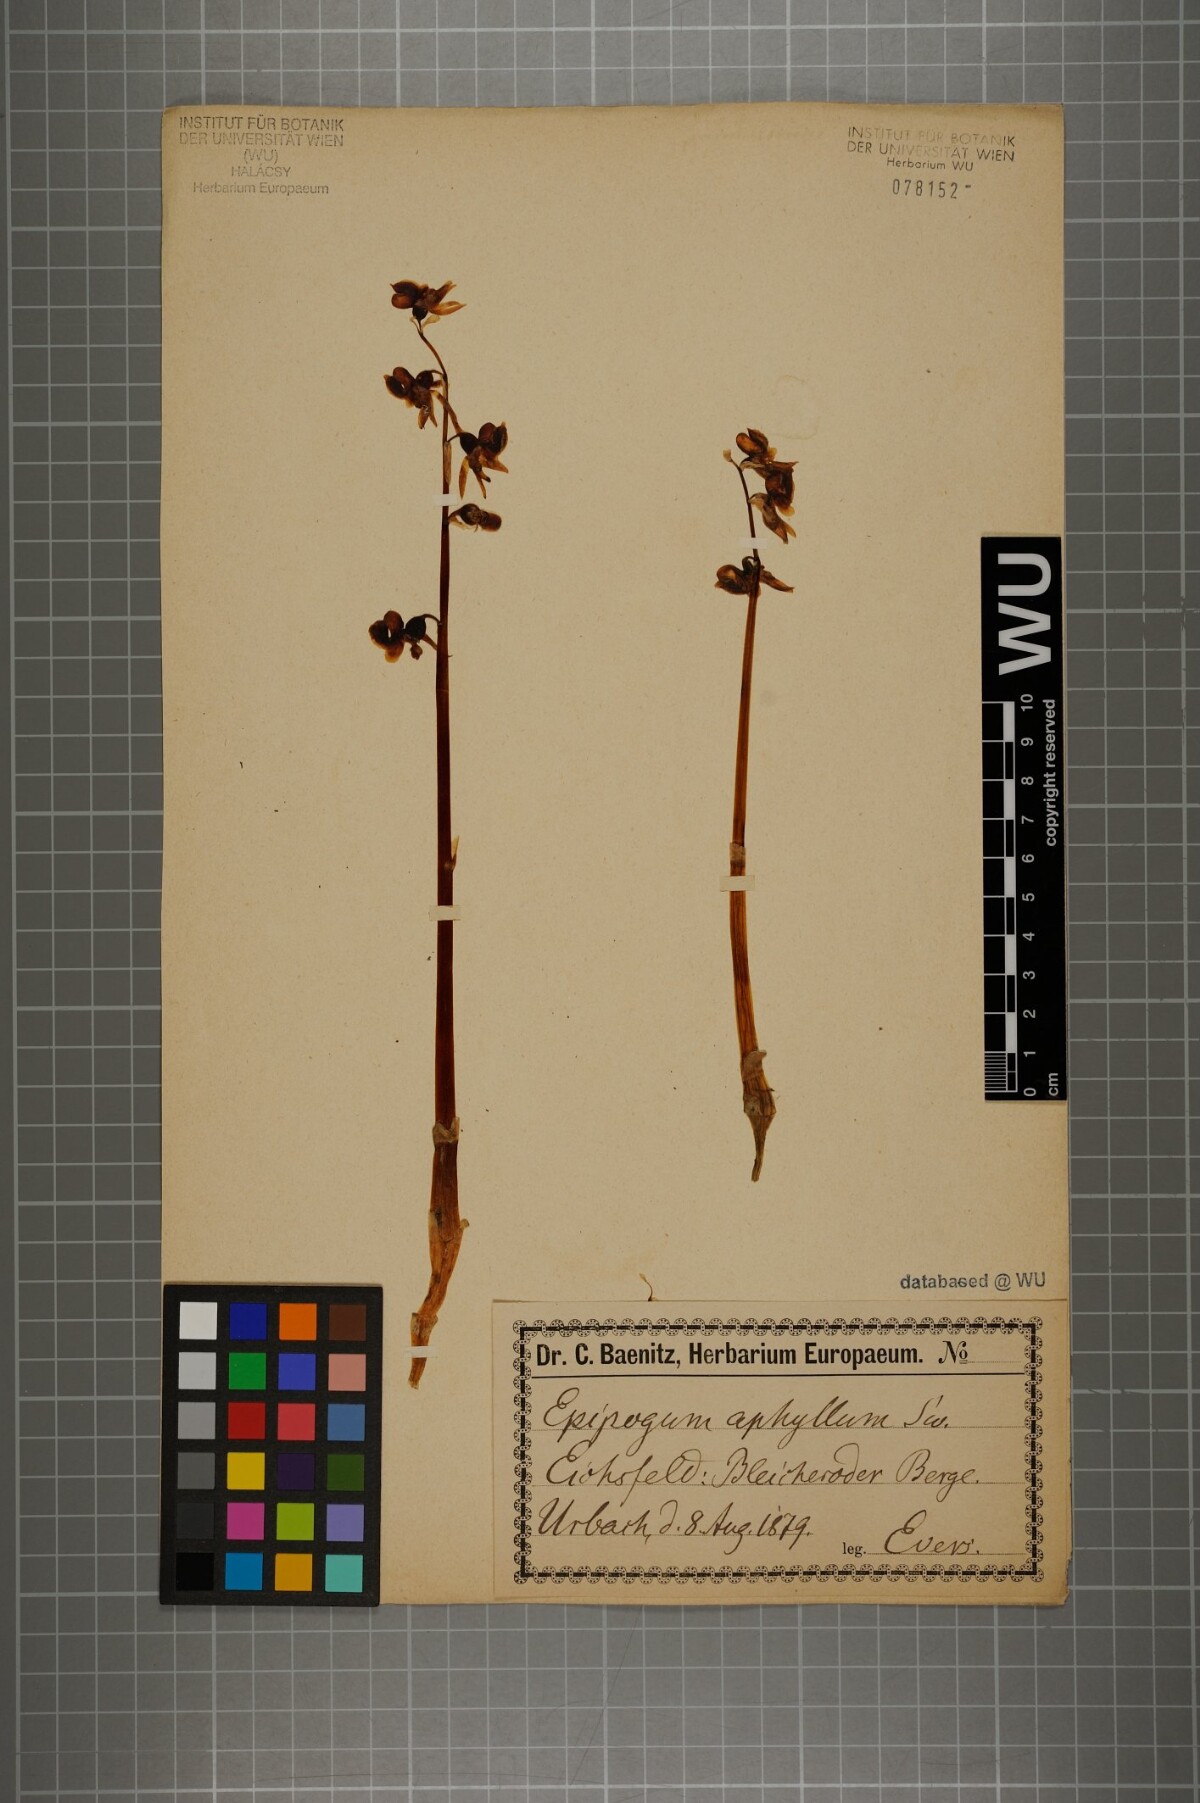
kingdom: Plantae
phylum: Tracheophyta
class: Liliopsida
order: Asparagales
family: Orchidaceae
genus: Epipogium
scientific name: Epipogium aphyllum
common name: Ghost orchid
